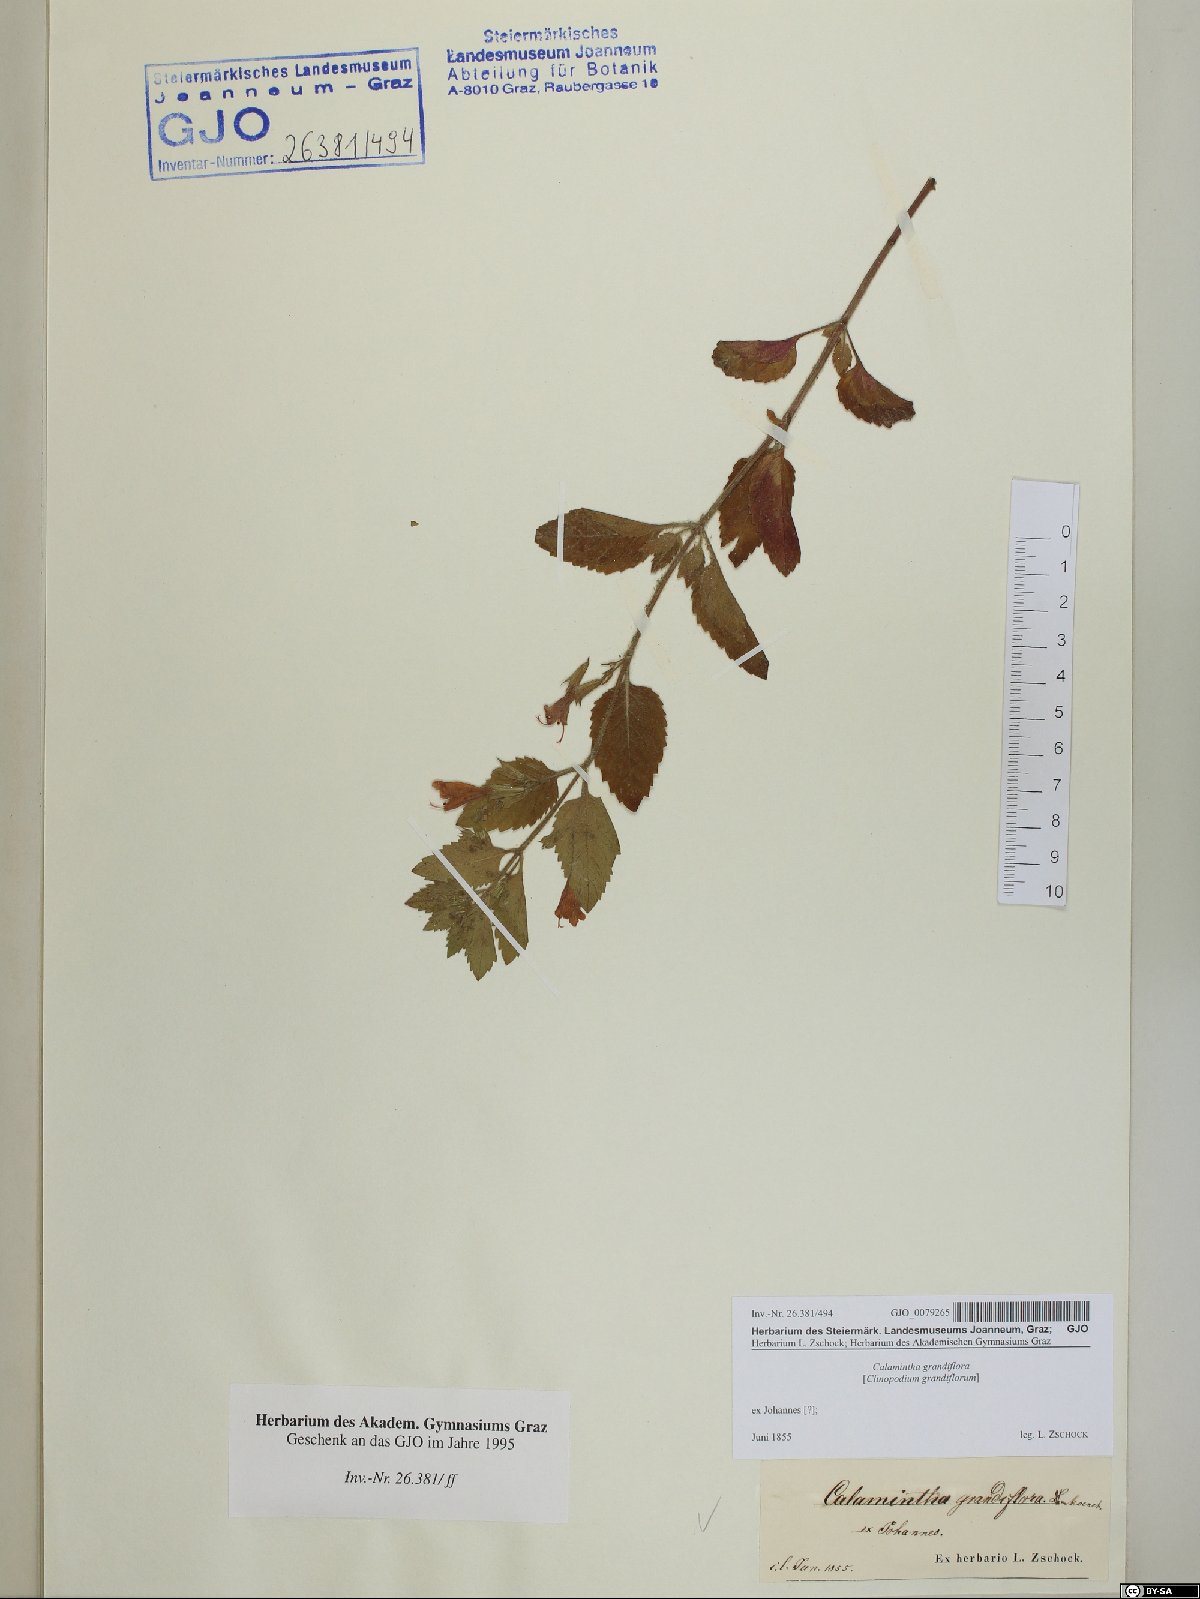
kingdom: Plantae
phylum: Tracheophyta
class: Magnoliopsida
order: Lamiales
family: Lamiaceae
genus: Clinopodium
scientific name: Clinopodium grandiflorum
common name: Greater calamint
